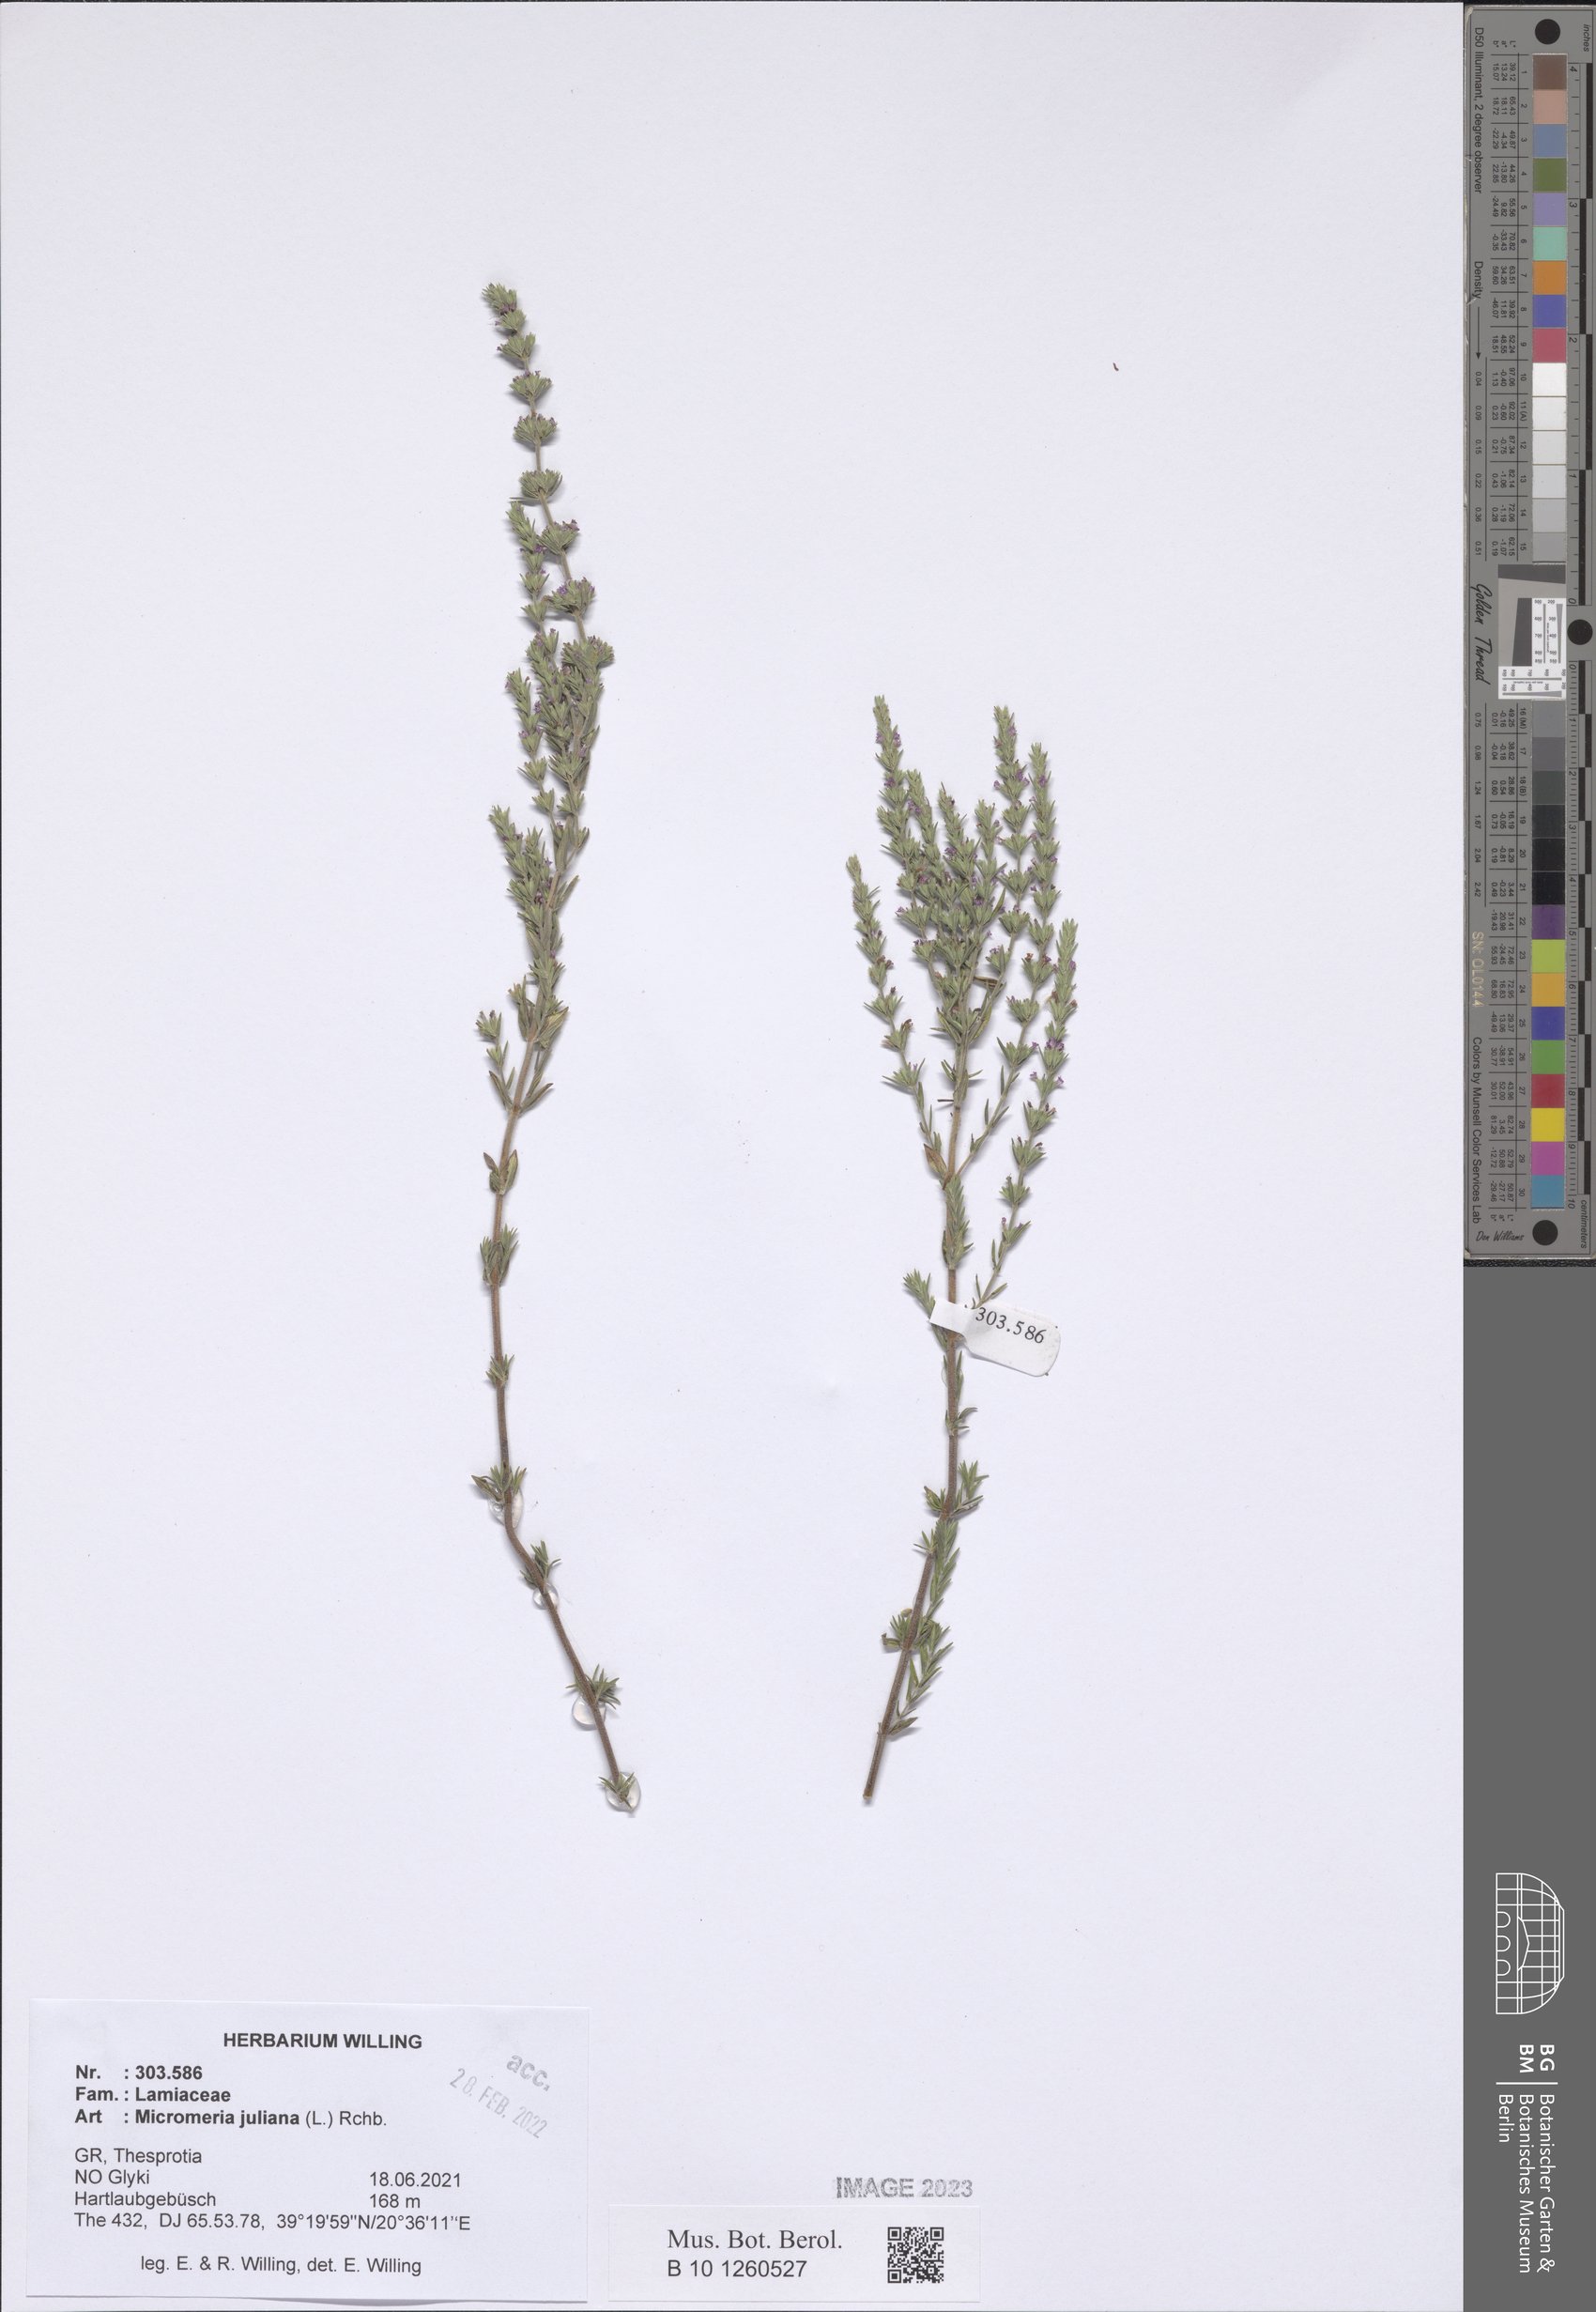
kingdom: Plantae
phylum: Tracheophyta
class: Magnoliopsida
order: Lamiales
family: Lamiaceae
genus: Micromeria
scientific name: Micromeria juliana
